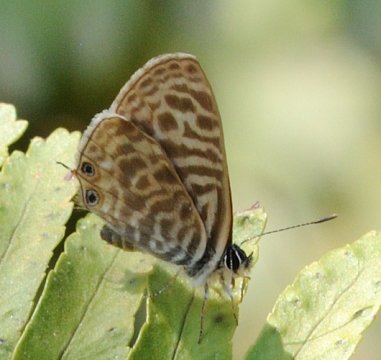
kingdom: Animalia
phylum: Arthropoda
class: Insecta
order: Lepidoptera
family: Lycaenidae
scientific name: Lycaenidae
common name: Gossamerwings
